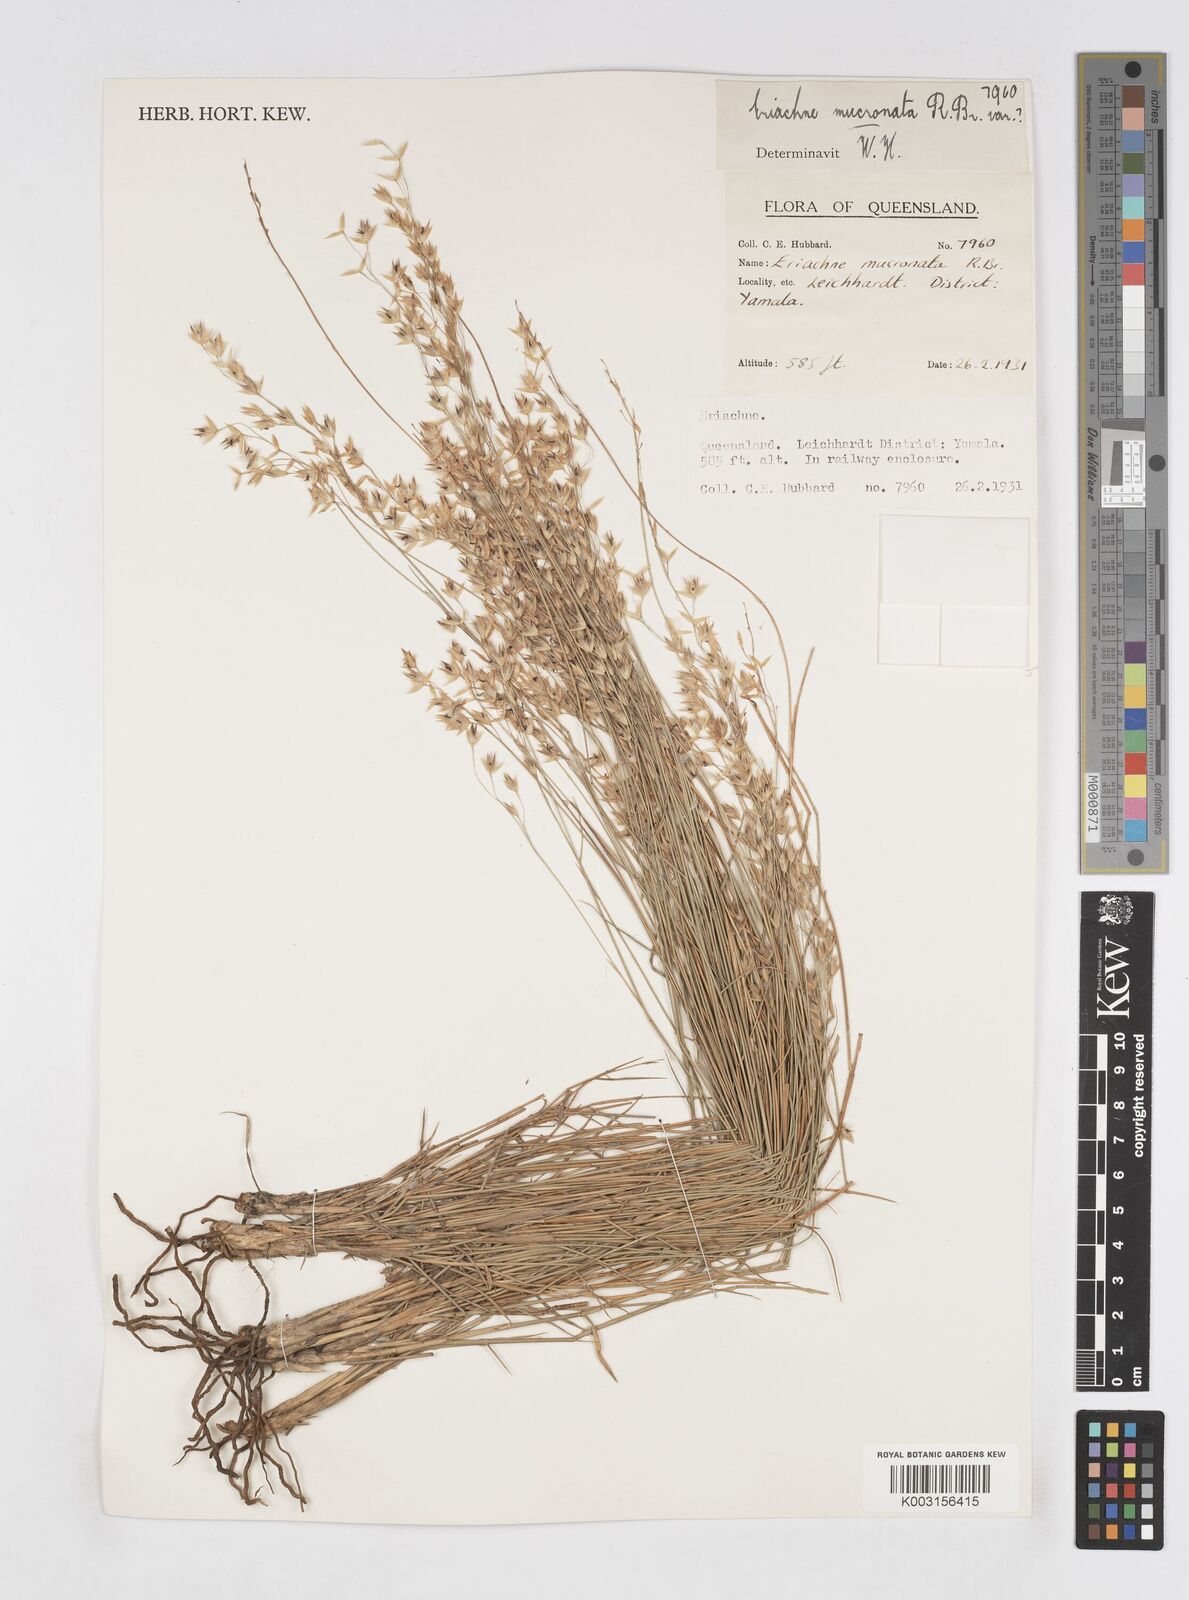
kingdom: Plantae
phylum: Tracheophyta
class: Liliopsida
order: Poales
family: Poaceae
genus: Eriachne
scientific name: Eriachne mucronata
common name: Mountain wanderrie grass
